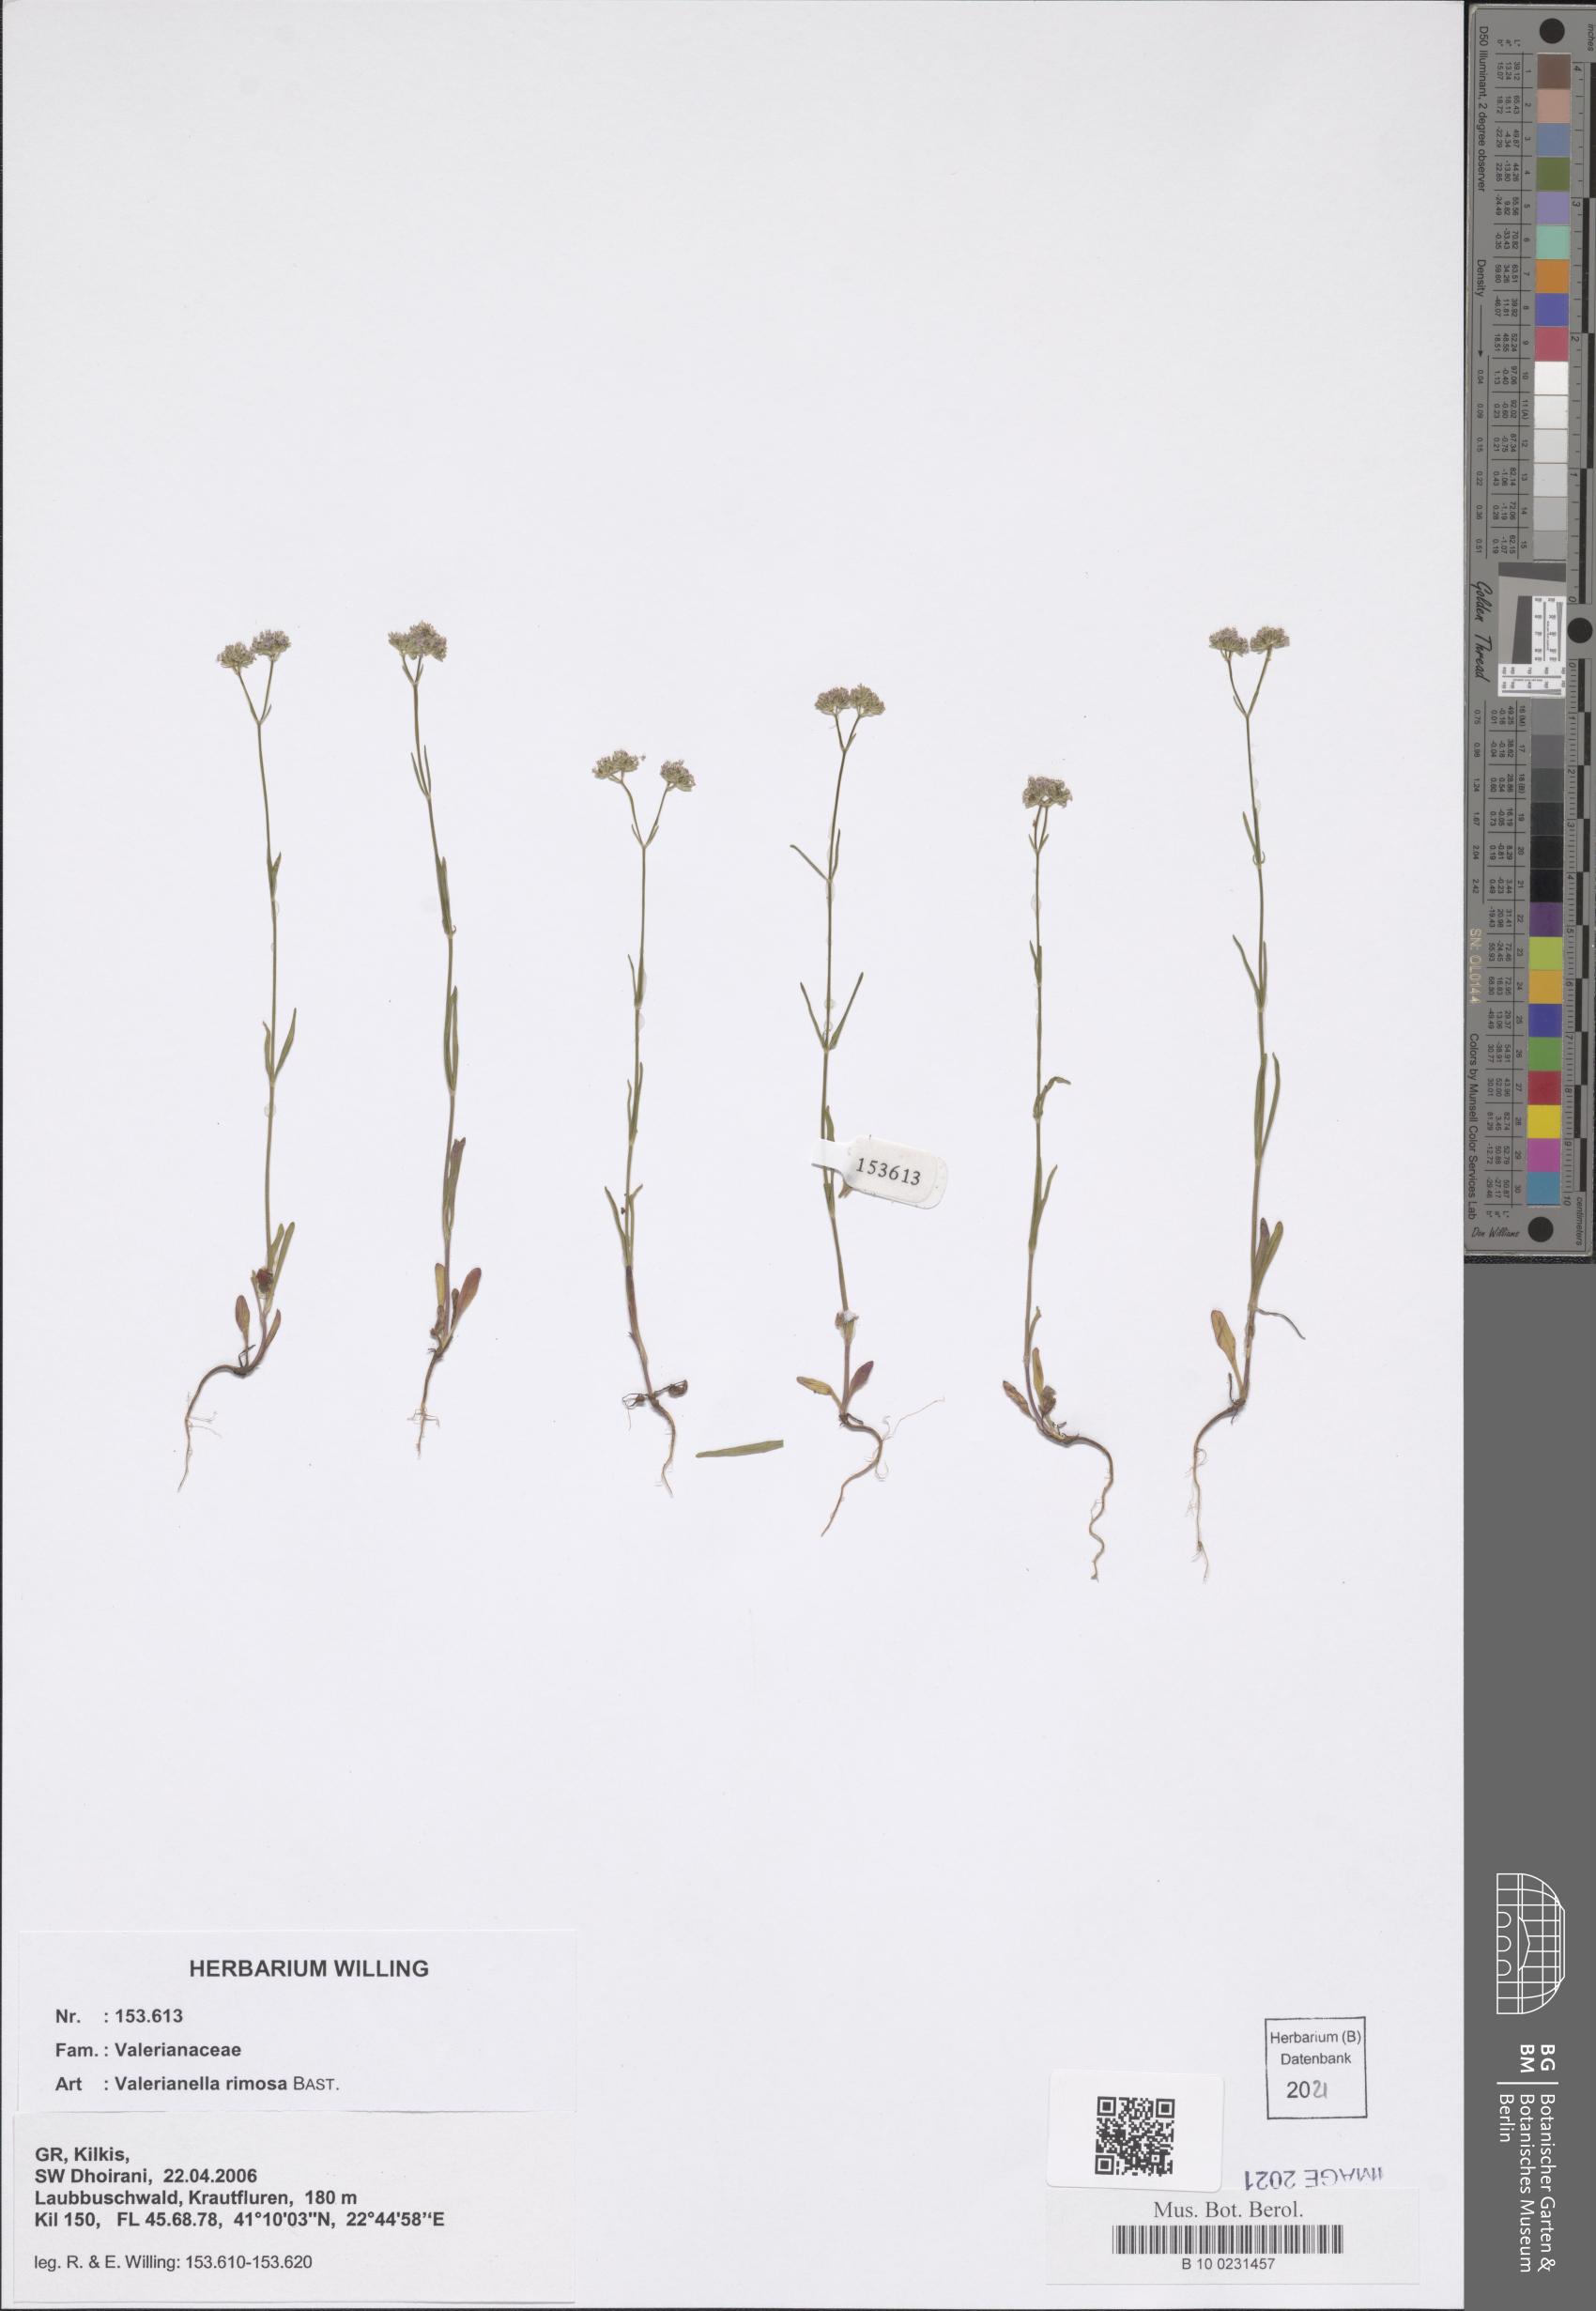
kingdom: Plantae
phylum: Tracheophyta
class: Magnoliopsida
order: Dipsacales
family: Caprifoliaceae
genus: Valerianella
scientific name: Valerianella rimosa
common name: Broad-fruited cornsalad
